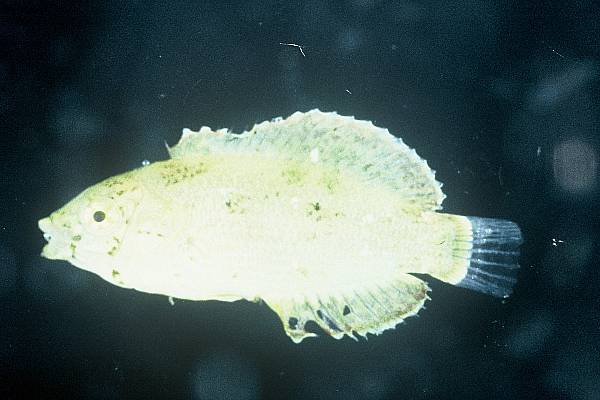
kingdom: Animalia
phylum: Chordata
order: Perciformes
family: Labridae
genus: Macropharyngodon
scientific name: Macropharyngodon
